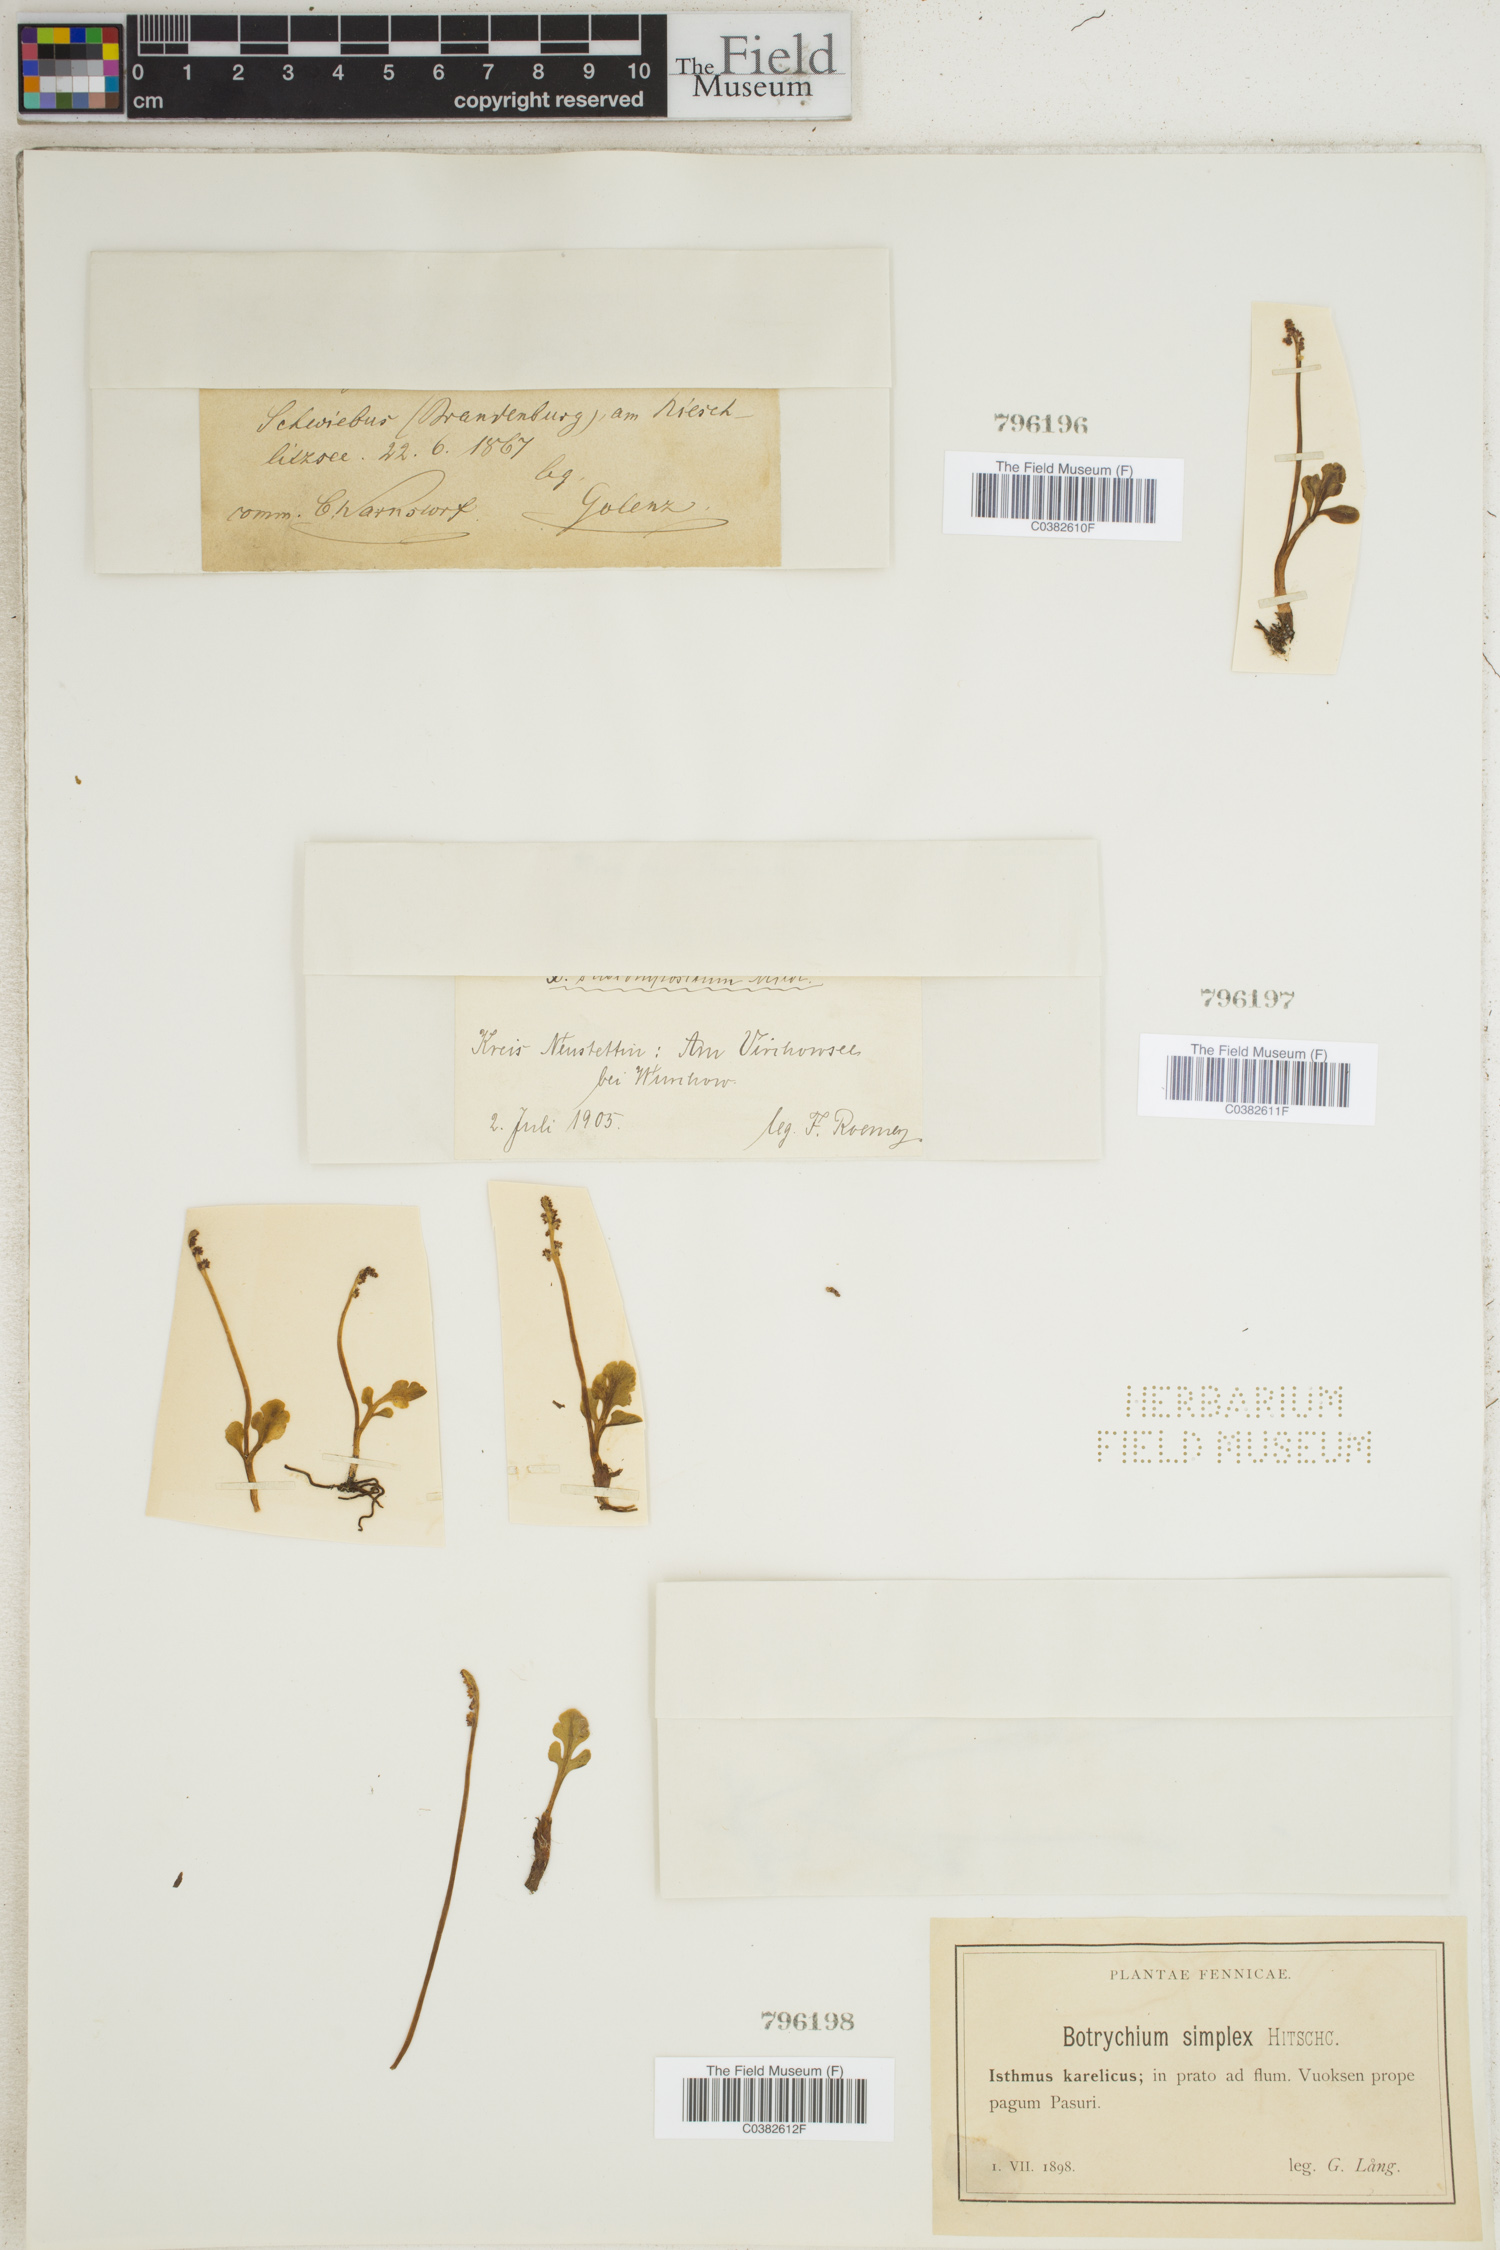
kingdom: Plantae
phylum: Tracheophyta
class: Polypodiopsida
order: Ophioglossales
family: Ophioglossaceae
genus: Botrychium
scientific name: Botrychium simplex
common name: Least moonwort
